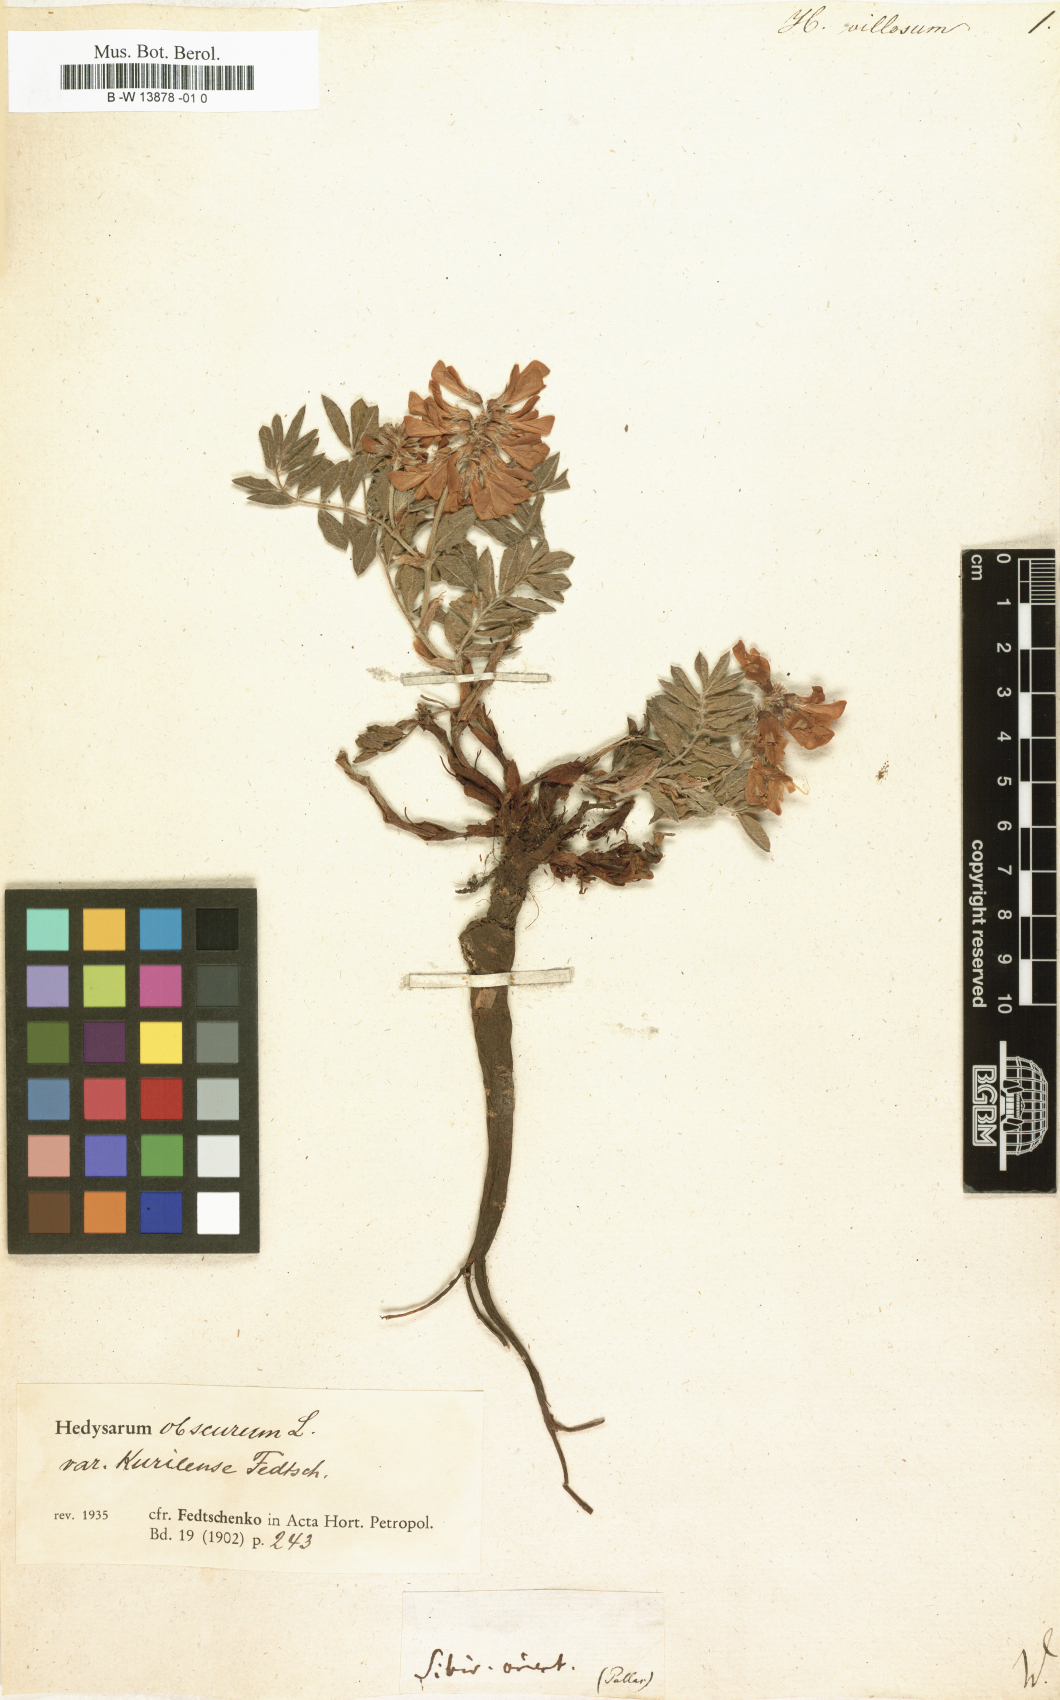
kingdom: Plantae
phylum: Tracheophyta
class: Magnoliopsida
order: Fabales
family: Fabaceae
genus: Grona
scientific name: Grona barbata
